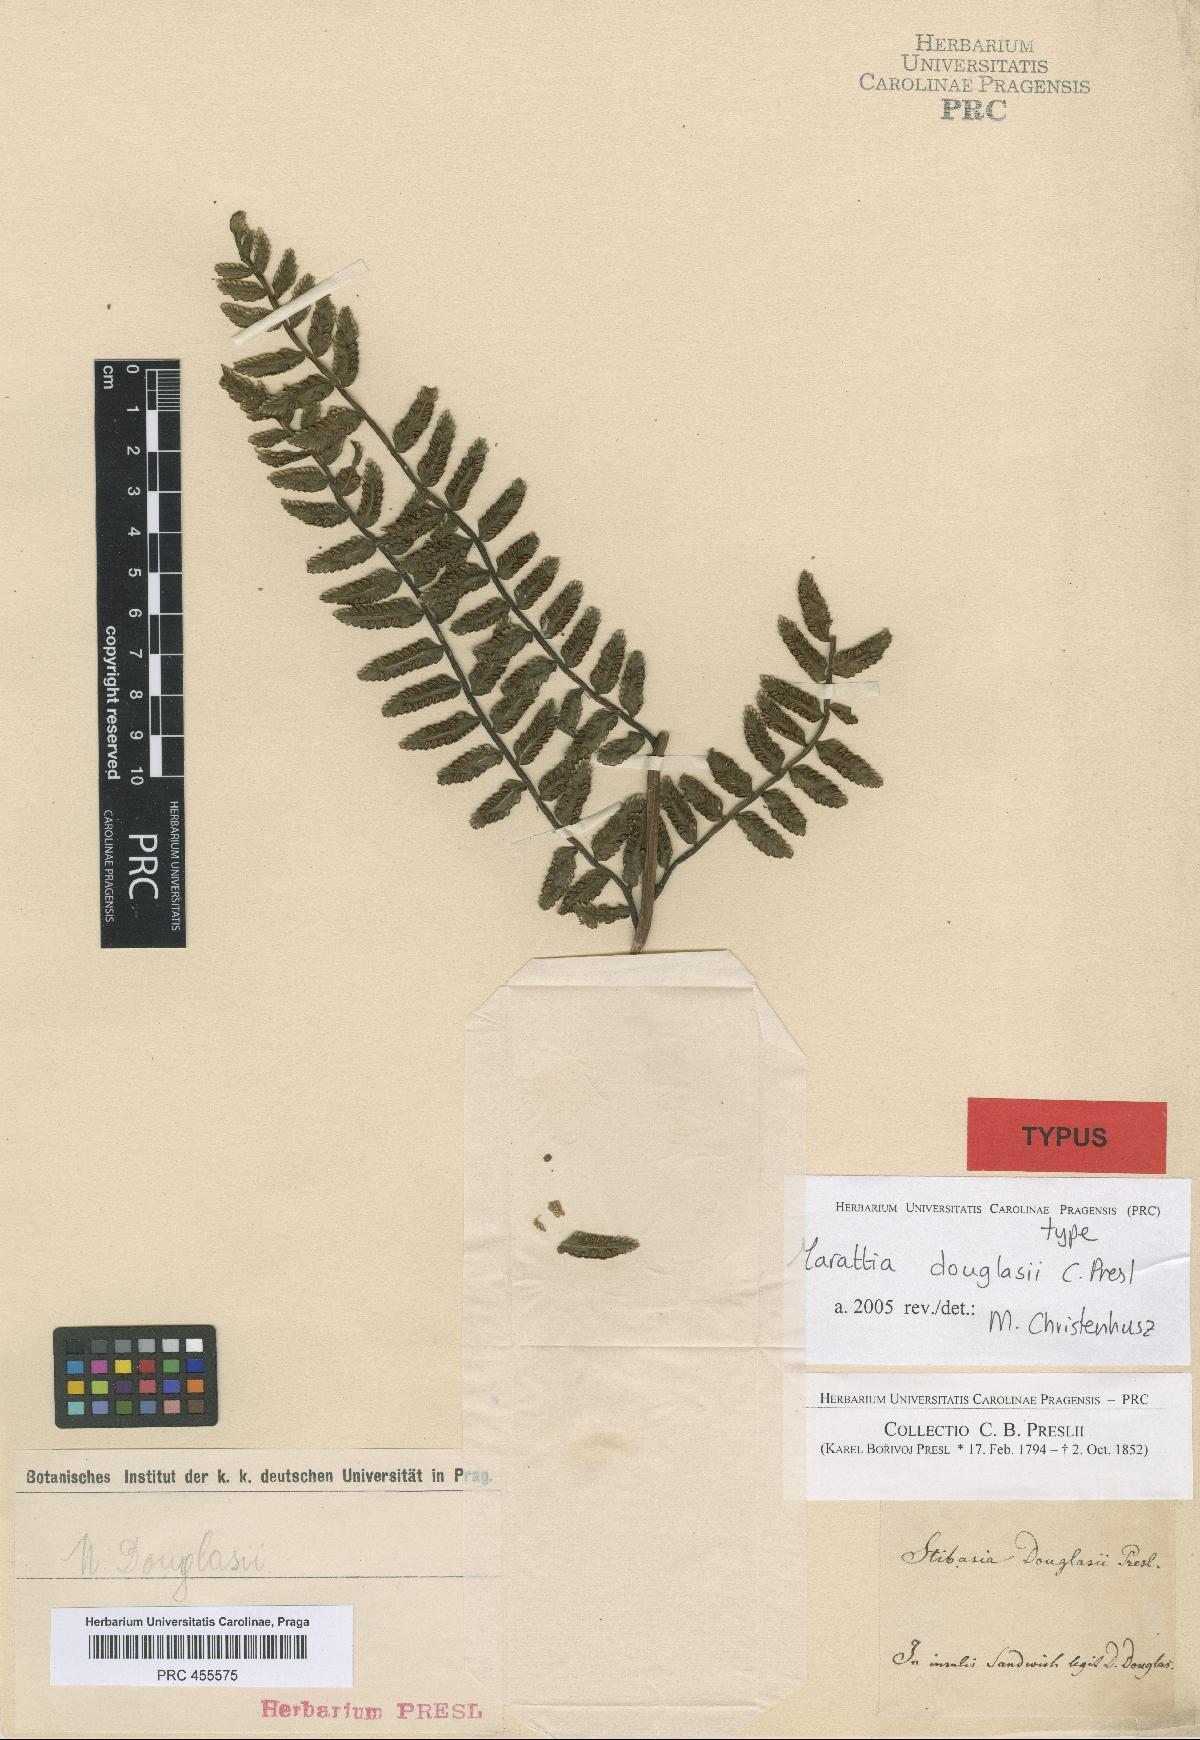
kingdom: Plantae
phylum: Tracheophyta
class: Polypodiopsida
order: Marattiales
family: Marattiaceae
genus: Marattia
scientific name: Marattia douglasii
